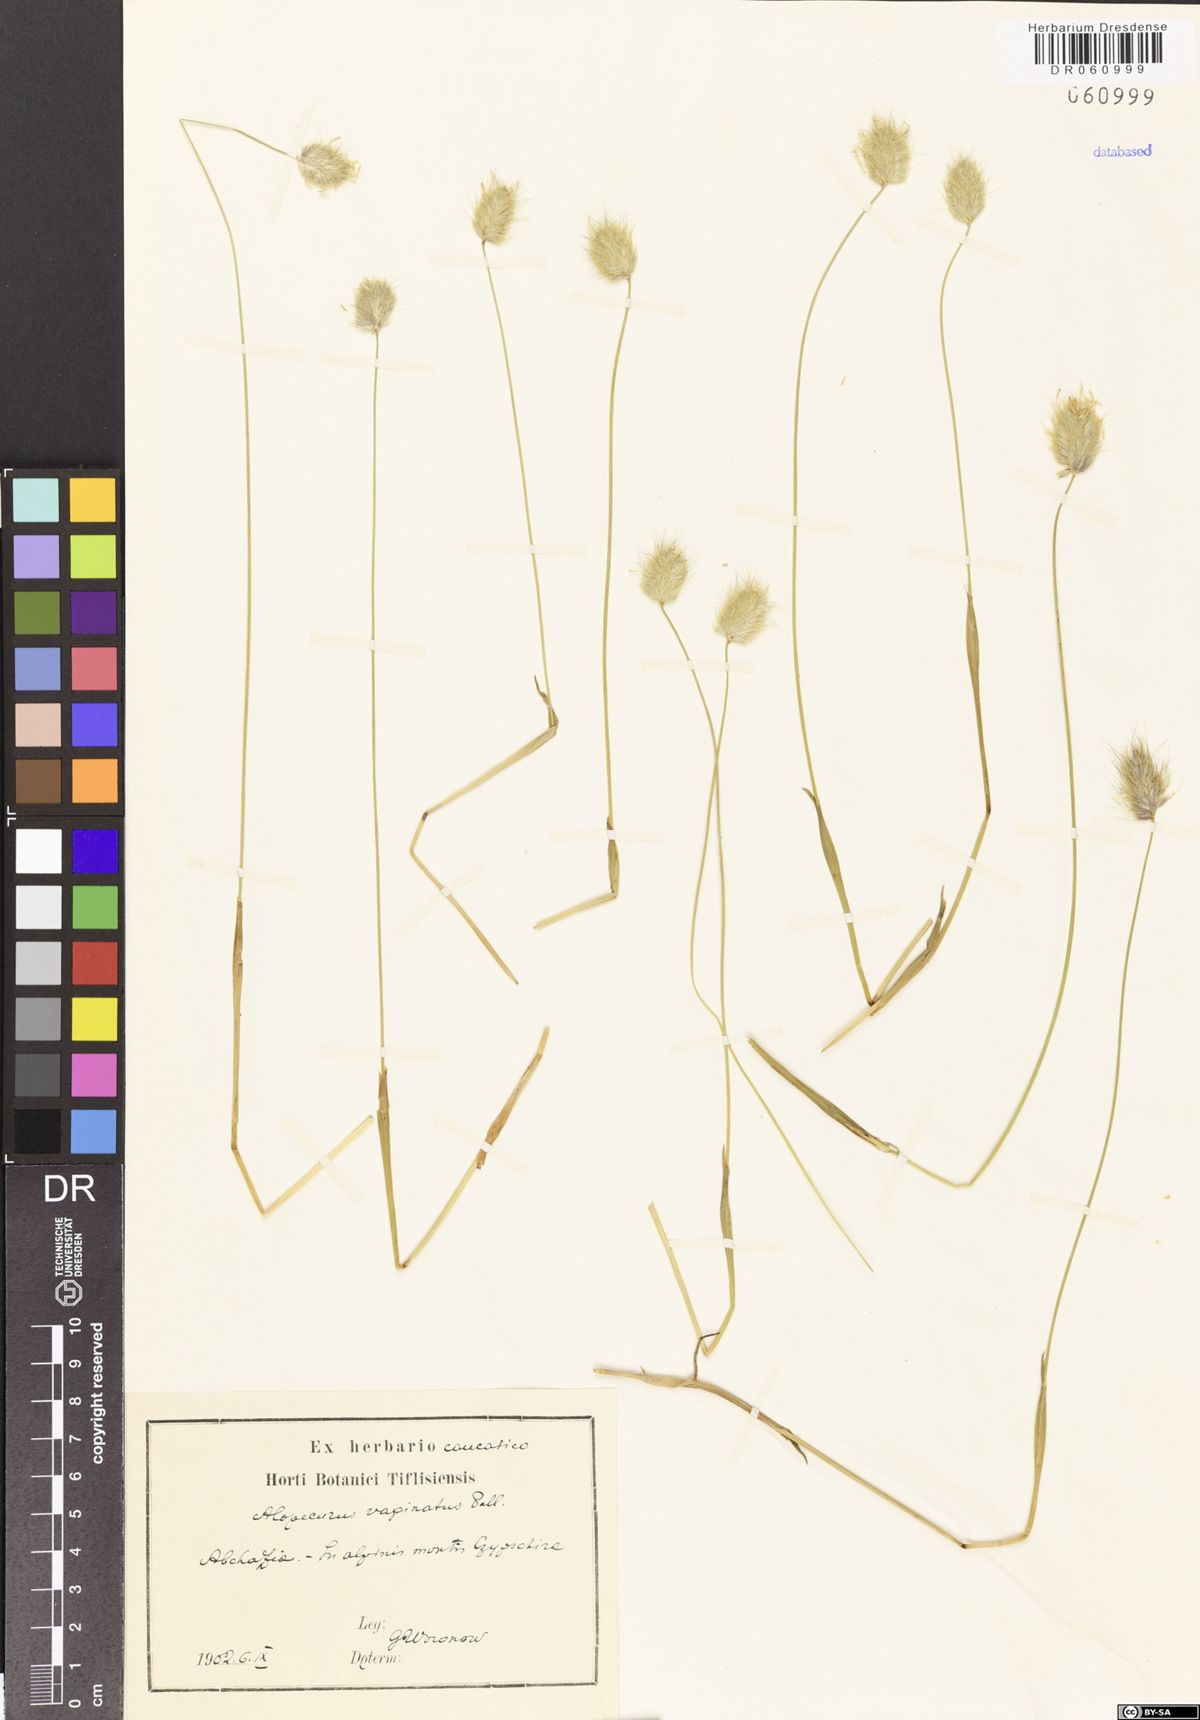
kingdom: Plantae
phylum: Tracheophyta
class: Liliopsida
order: Poales
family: Poaceae
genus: Alopecurus
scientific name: Alopecurus vaginatus
